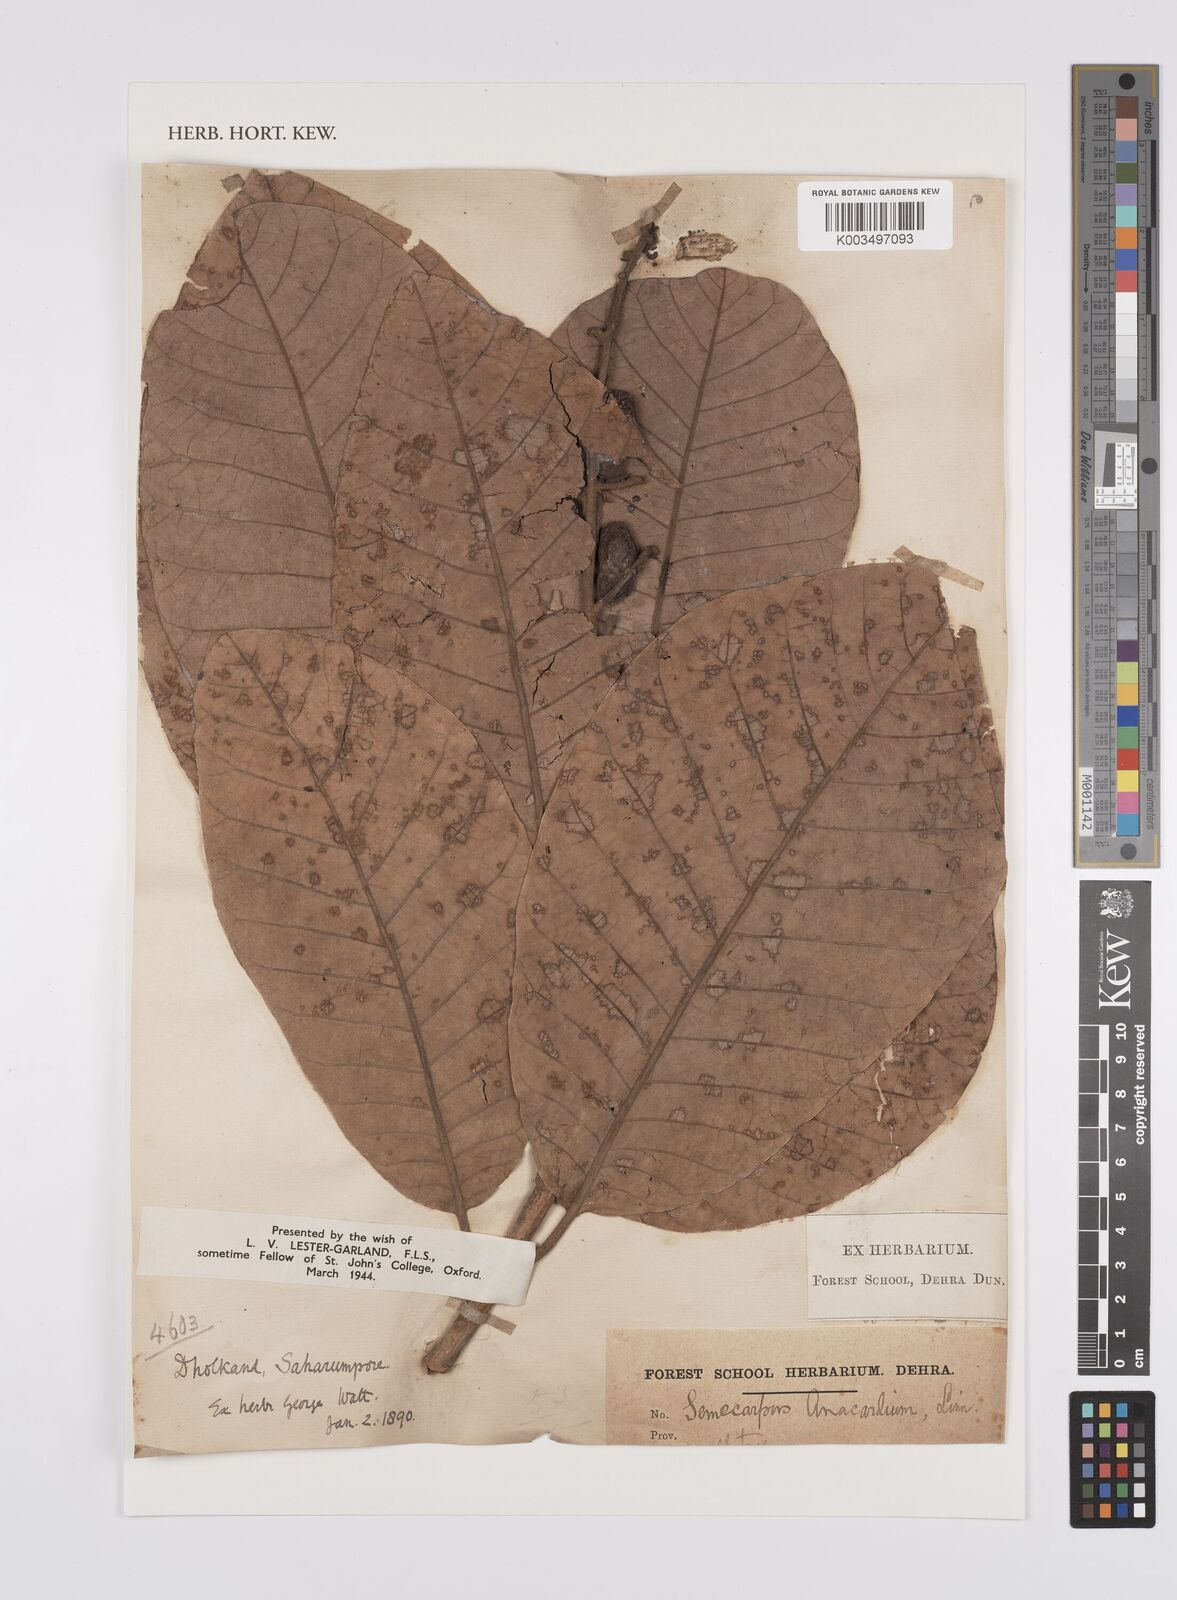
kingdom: Plantae
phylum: Tracheophyta
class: Magnoliopsida
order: Sapindales
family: Anacardiaceae
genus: Semecarpus
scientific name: Semecarpus anacardium
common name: Marking nut-tree
